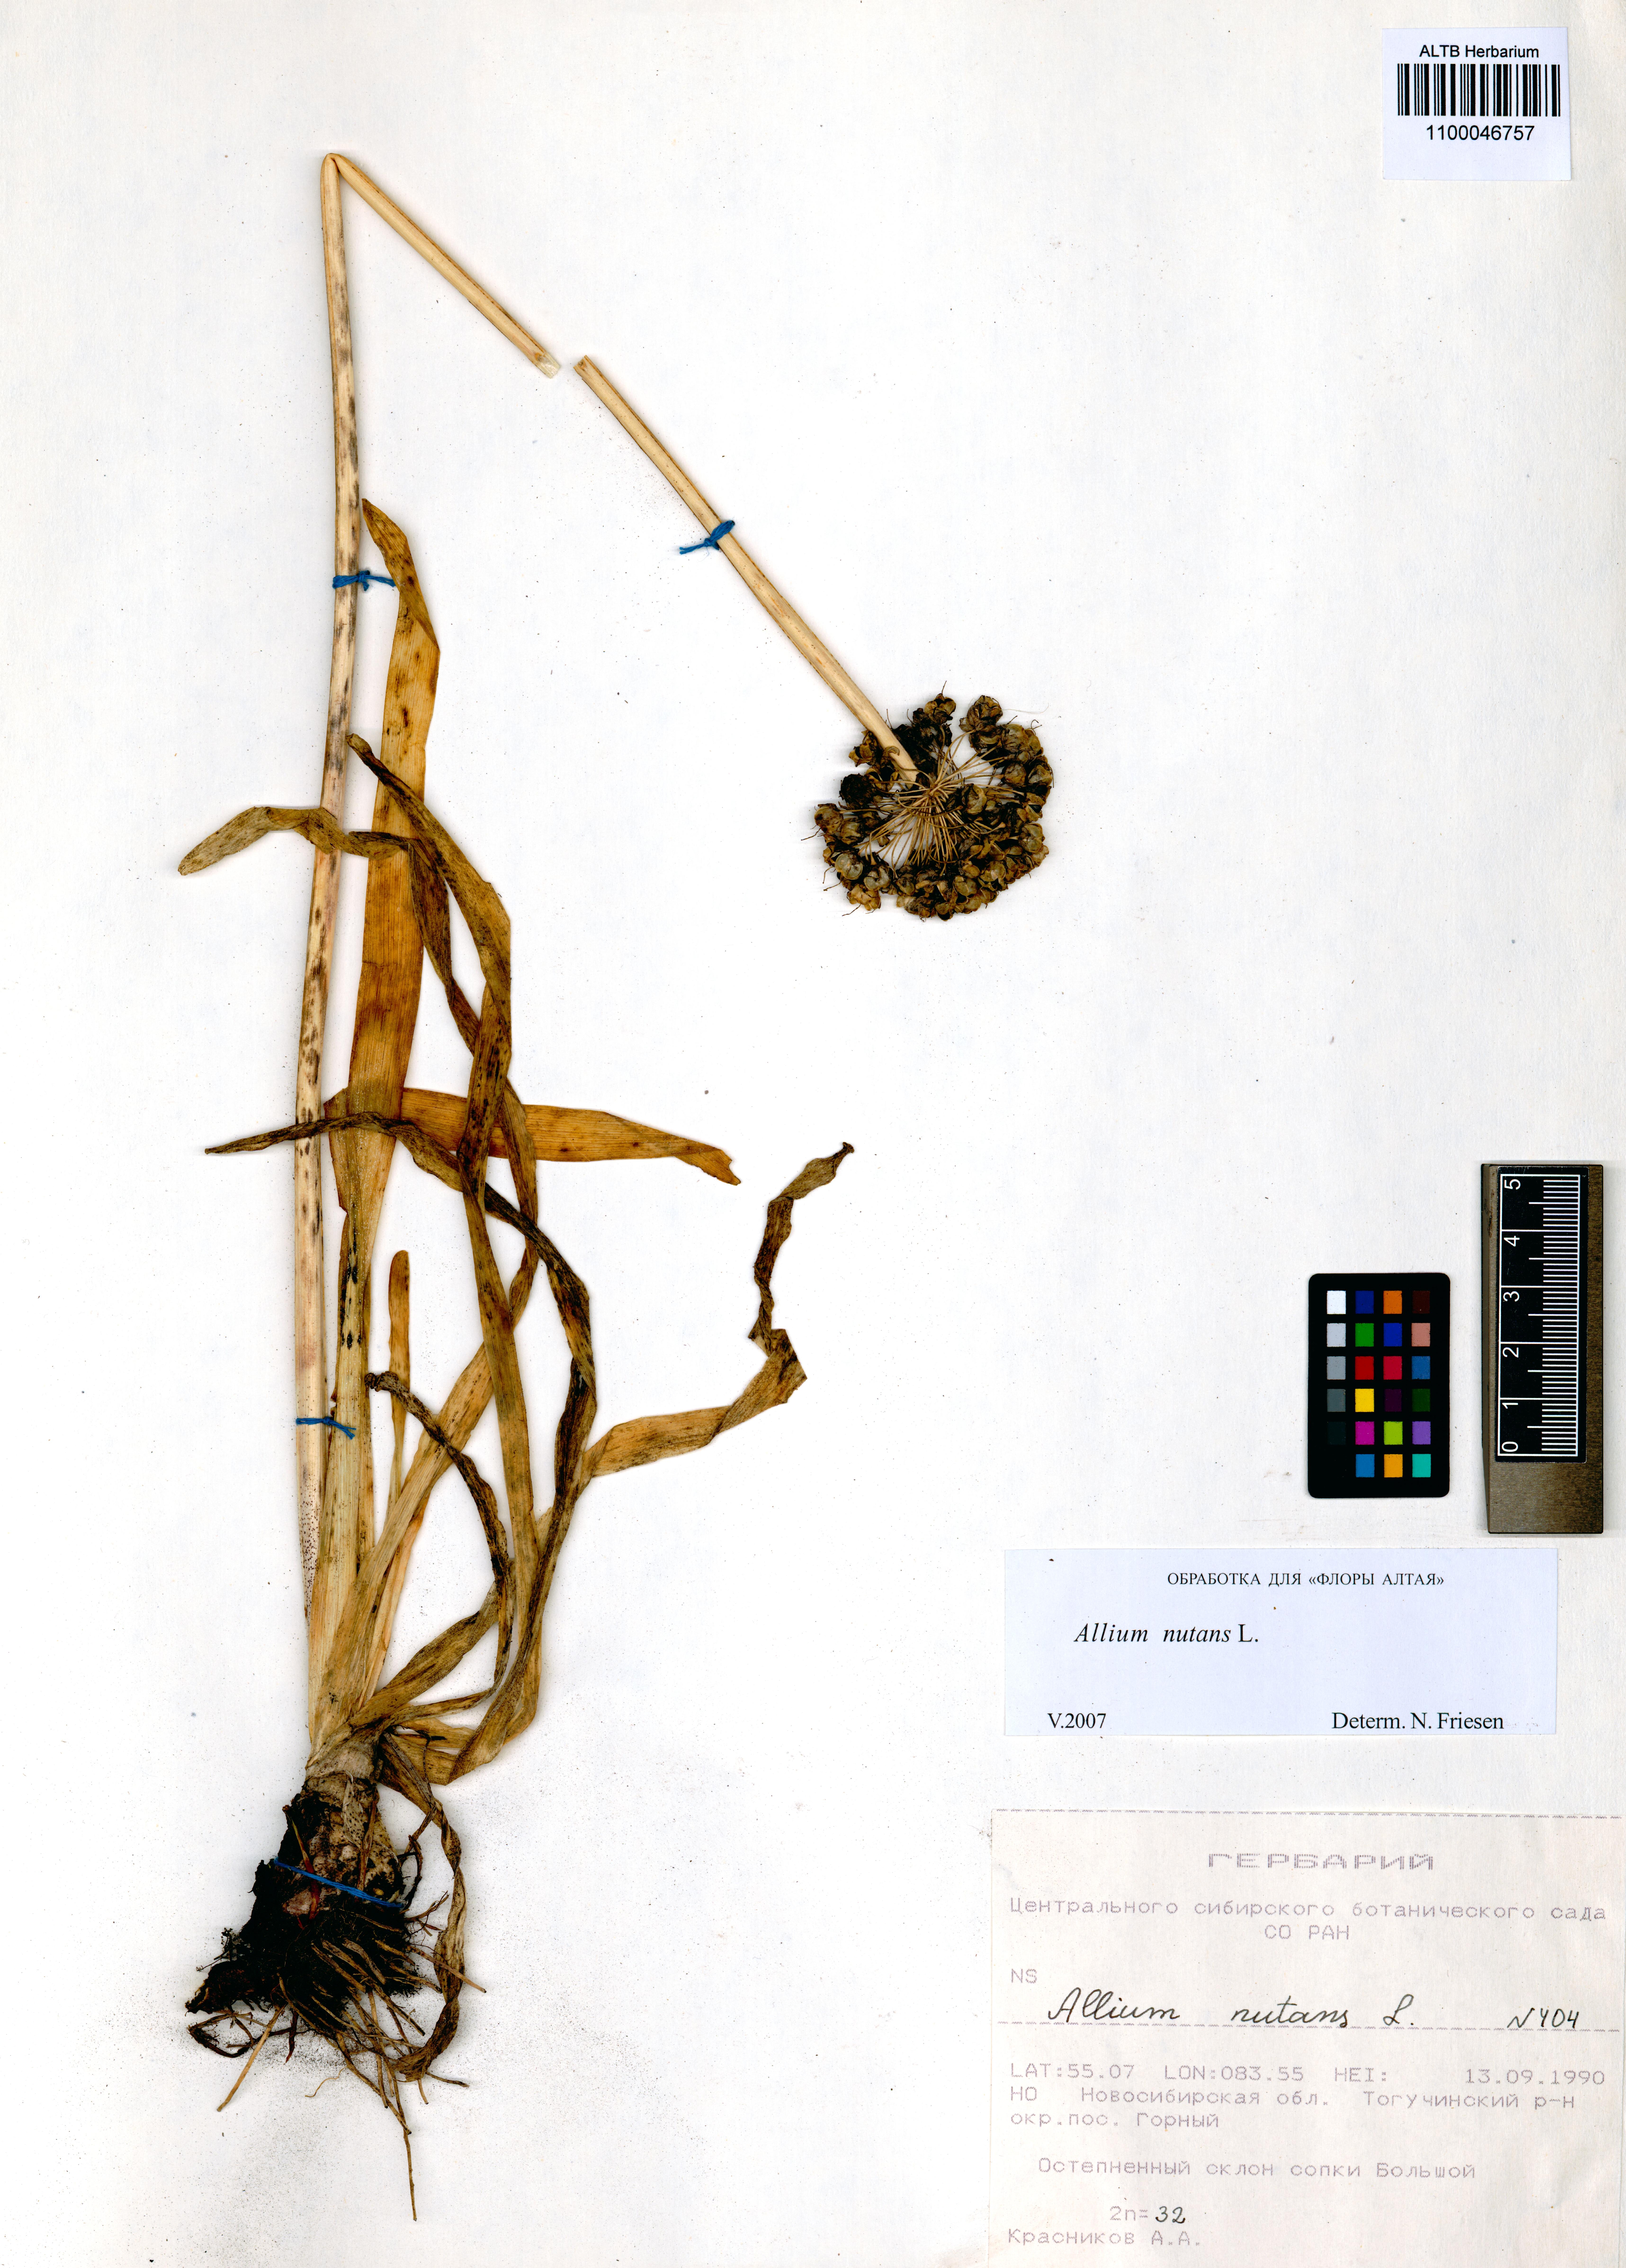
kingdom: Plantae
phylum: Tracheophyta
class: Liliopsida
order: Asparagales
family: Amaryllidaceae
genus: Allium
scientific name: Allium nutans
